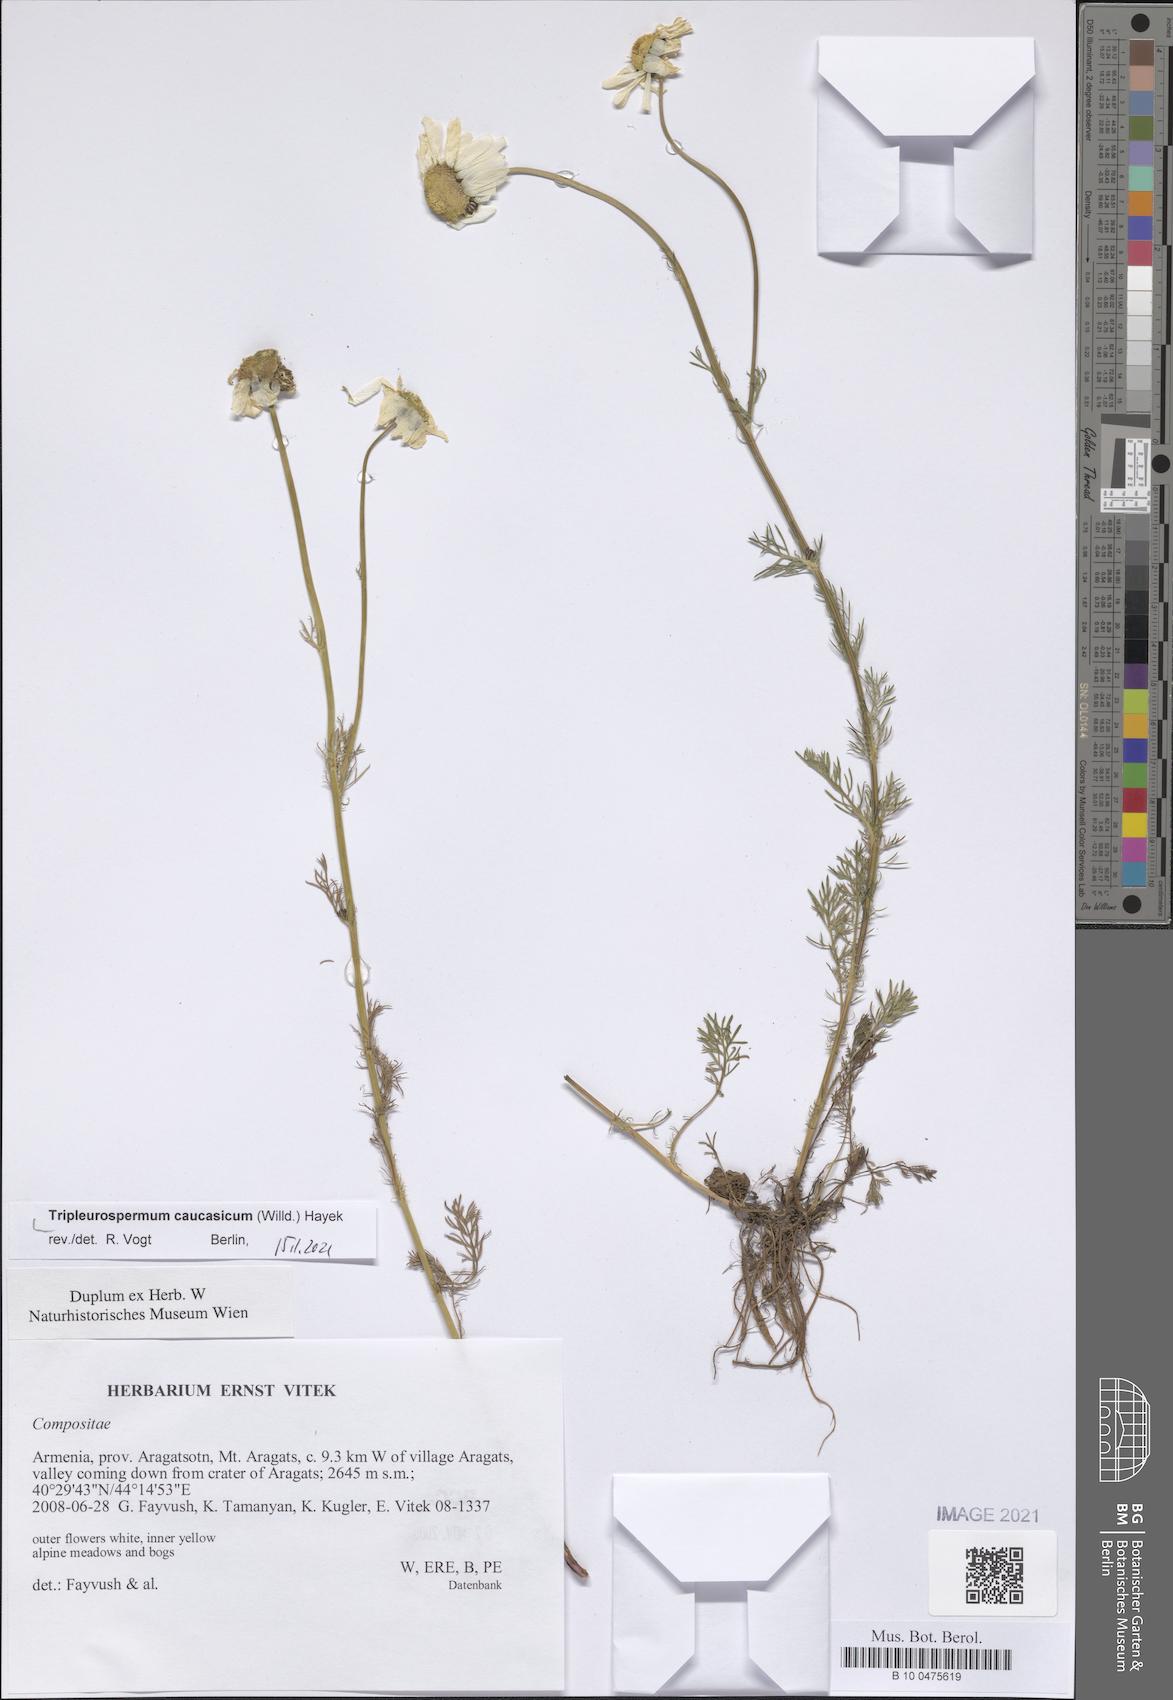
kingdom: Plantae
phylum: Tracheophyta
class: Magnoliopsida
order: Asterales
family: Asteraceae
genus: Tripleurospermum
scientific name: Tripleurospermum caucasicum
